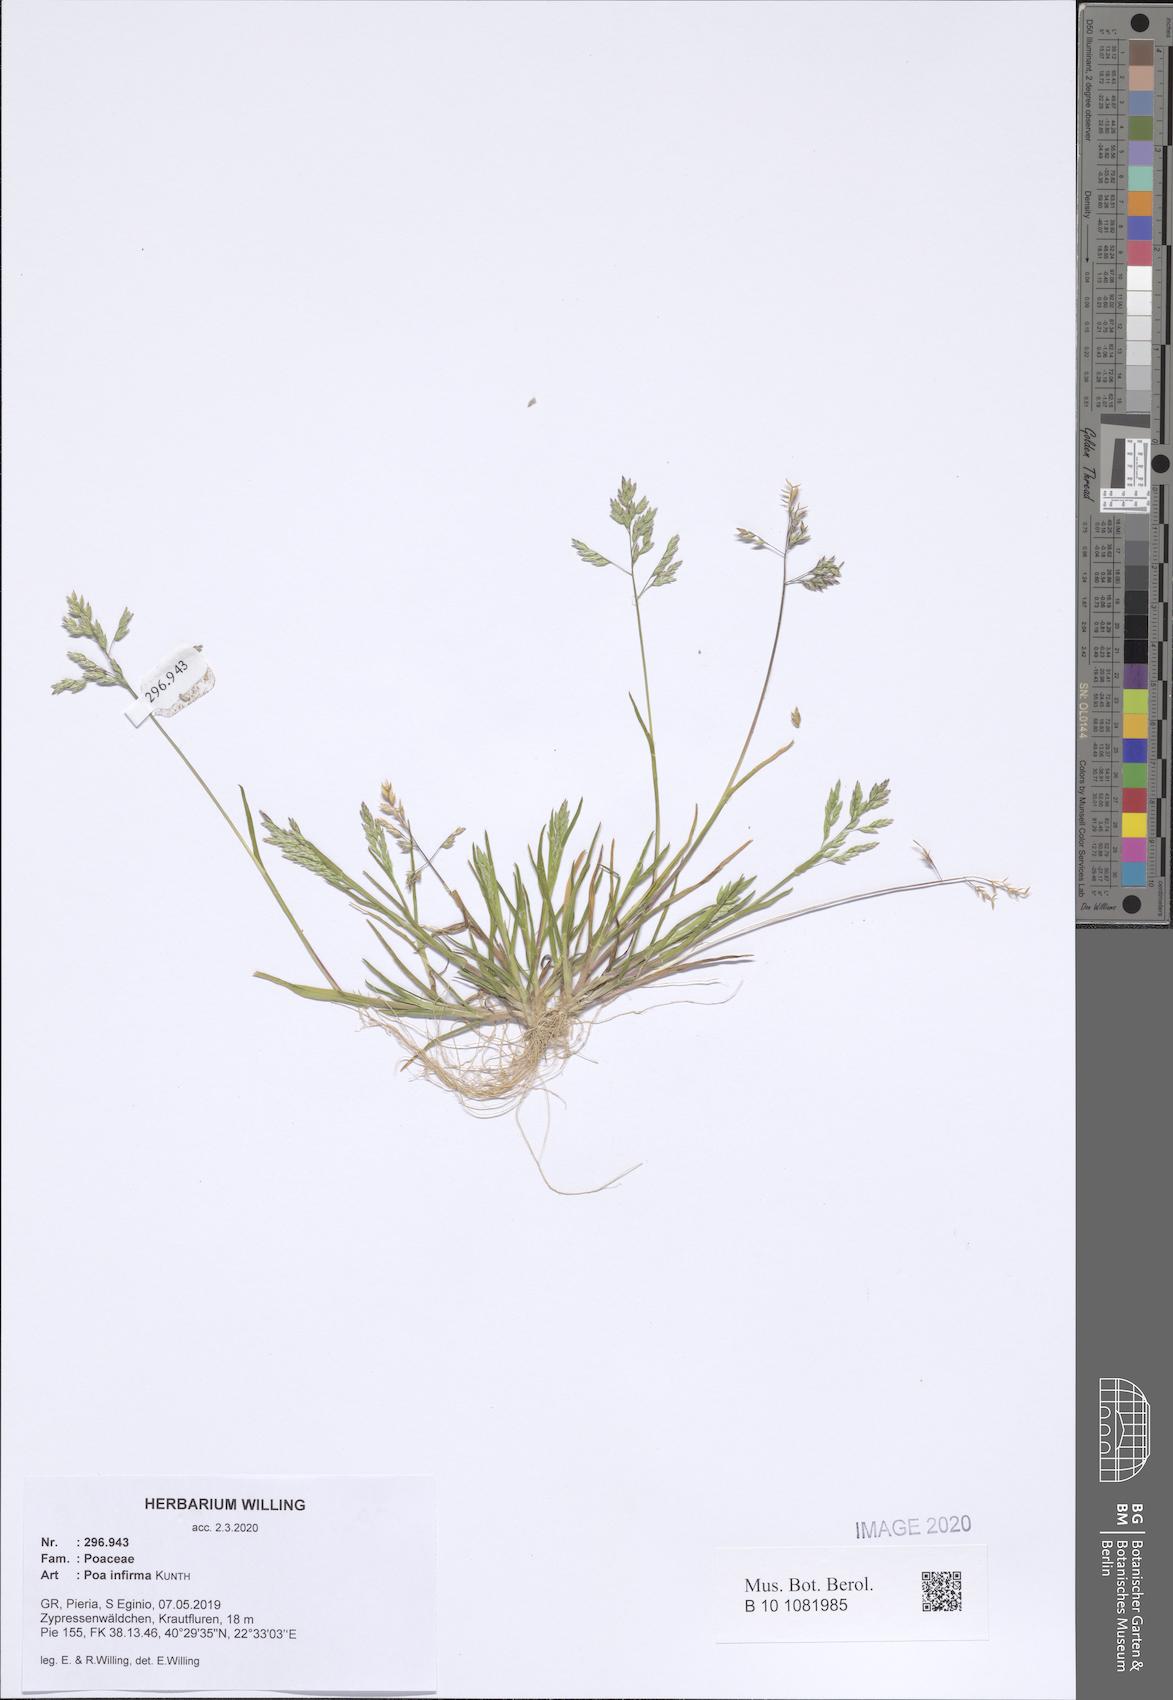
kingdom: Plantae
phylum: Tracheophyta
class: Liliopsida
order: Poales
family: Poaceae
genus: Poa
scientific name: Poa infirma
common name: Weak bluegrass
